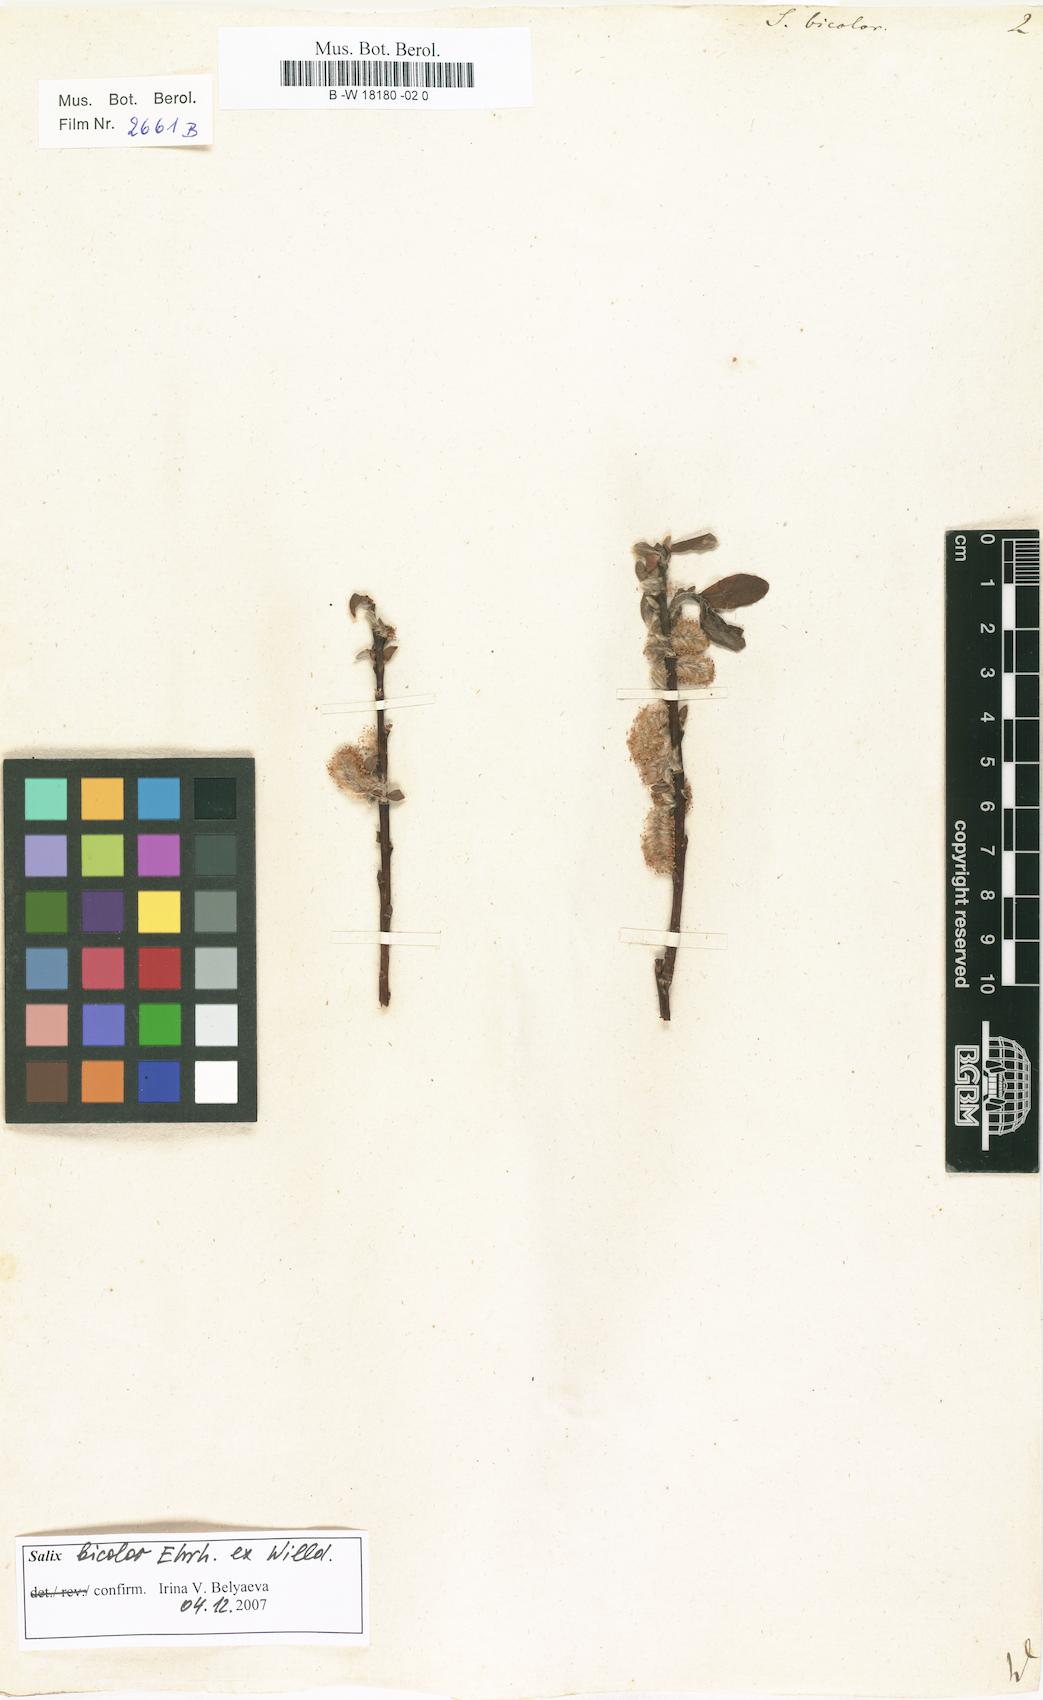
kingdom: Plantae
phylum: Tracheophyta
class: Magnoliopsida
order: Malpighiales
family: Salicaceae
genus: Salix
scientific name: Salix bicolor
